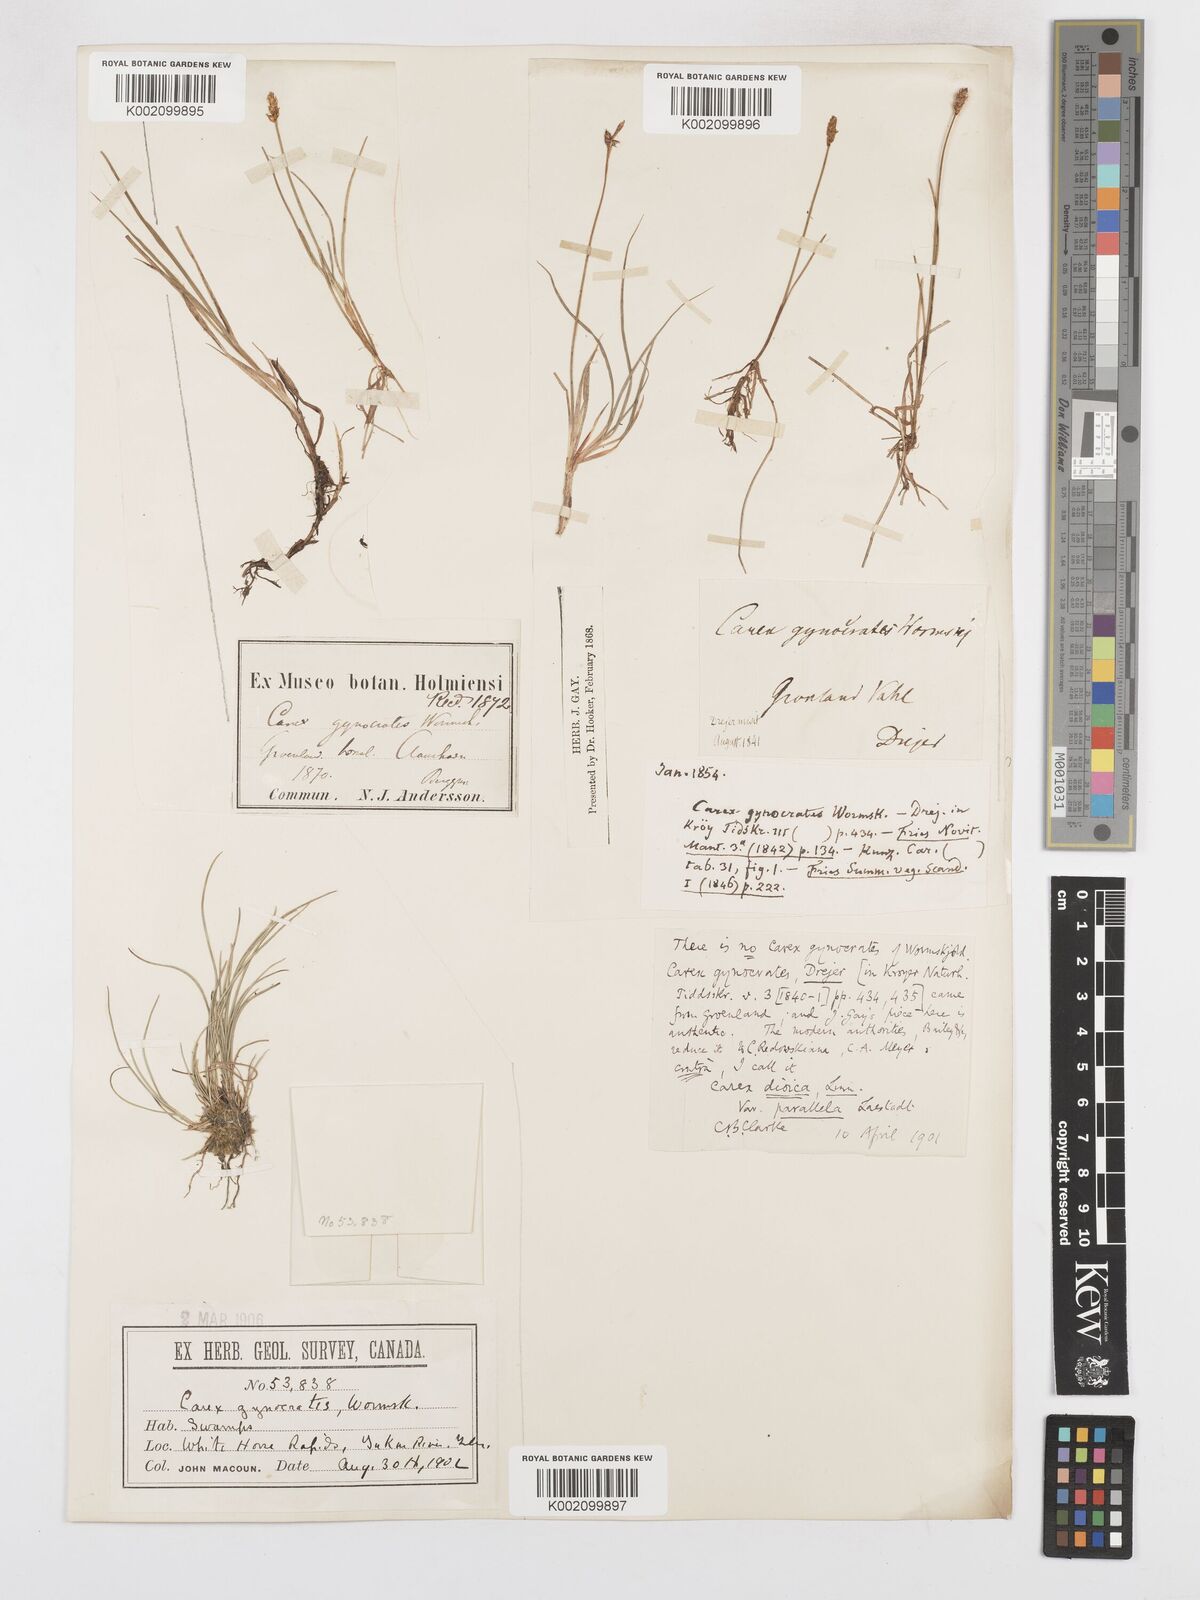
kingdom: Plantae
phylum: Tracheophyta
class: Liliopsida
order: Poales
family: Cyperaceae
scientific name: Cyperaceae
